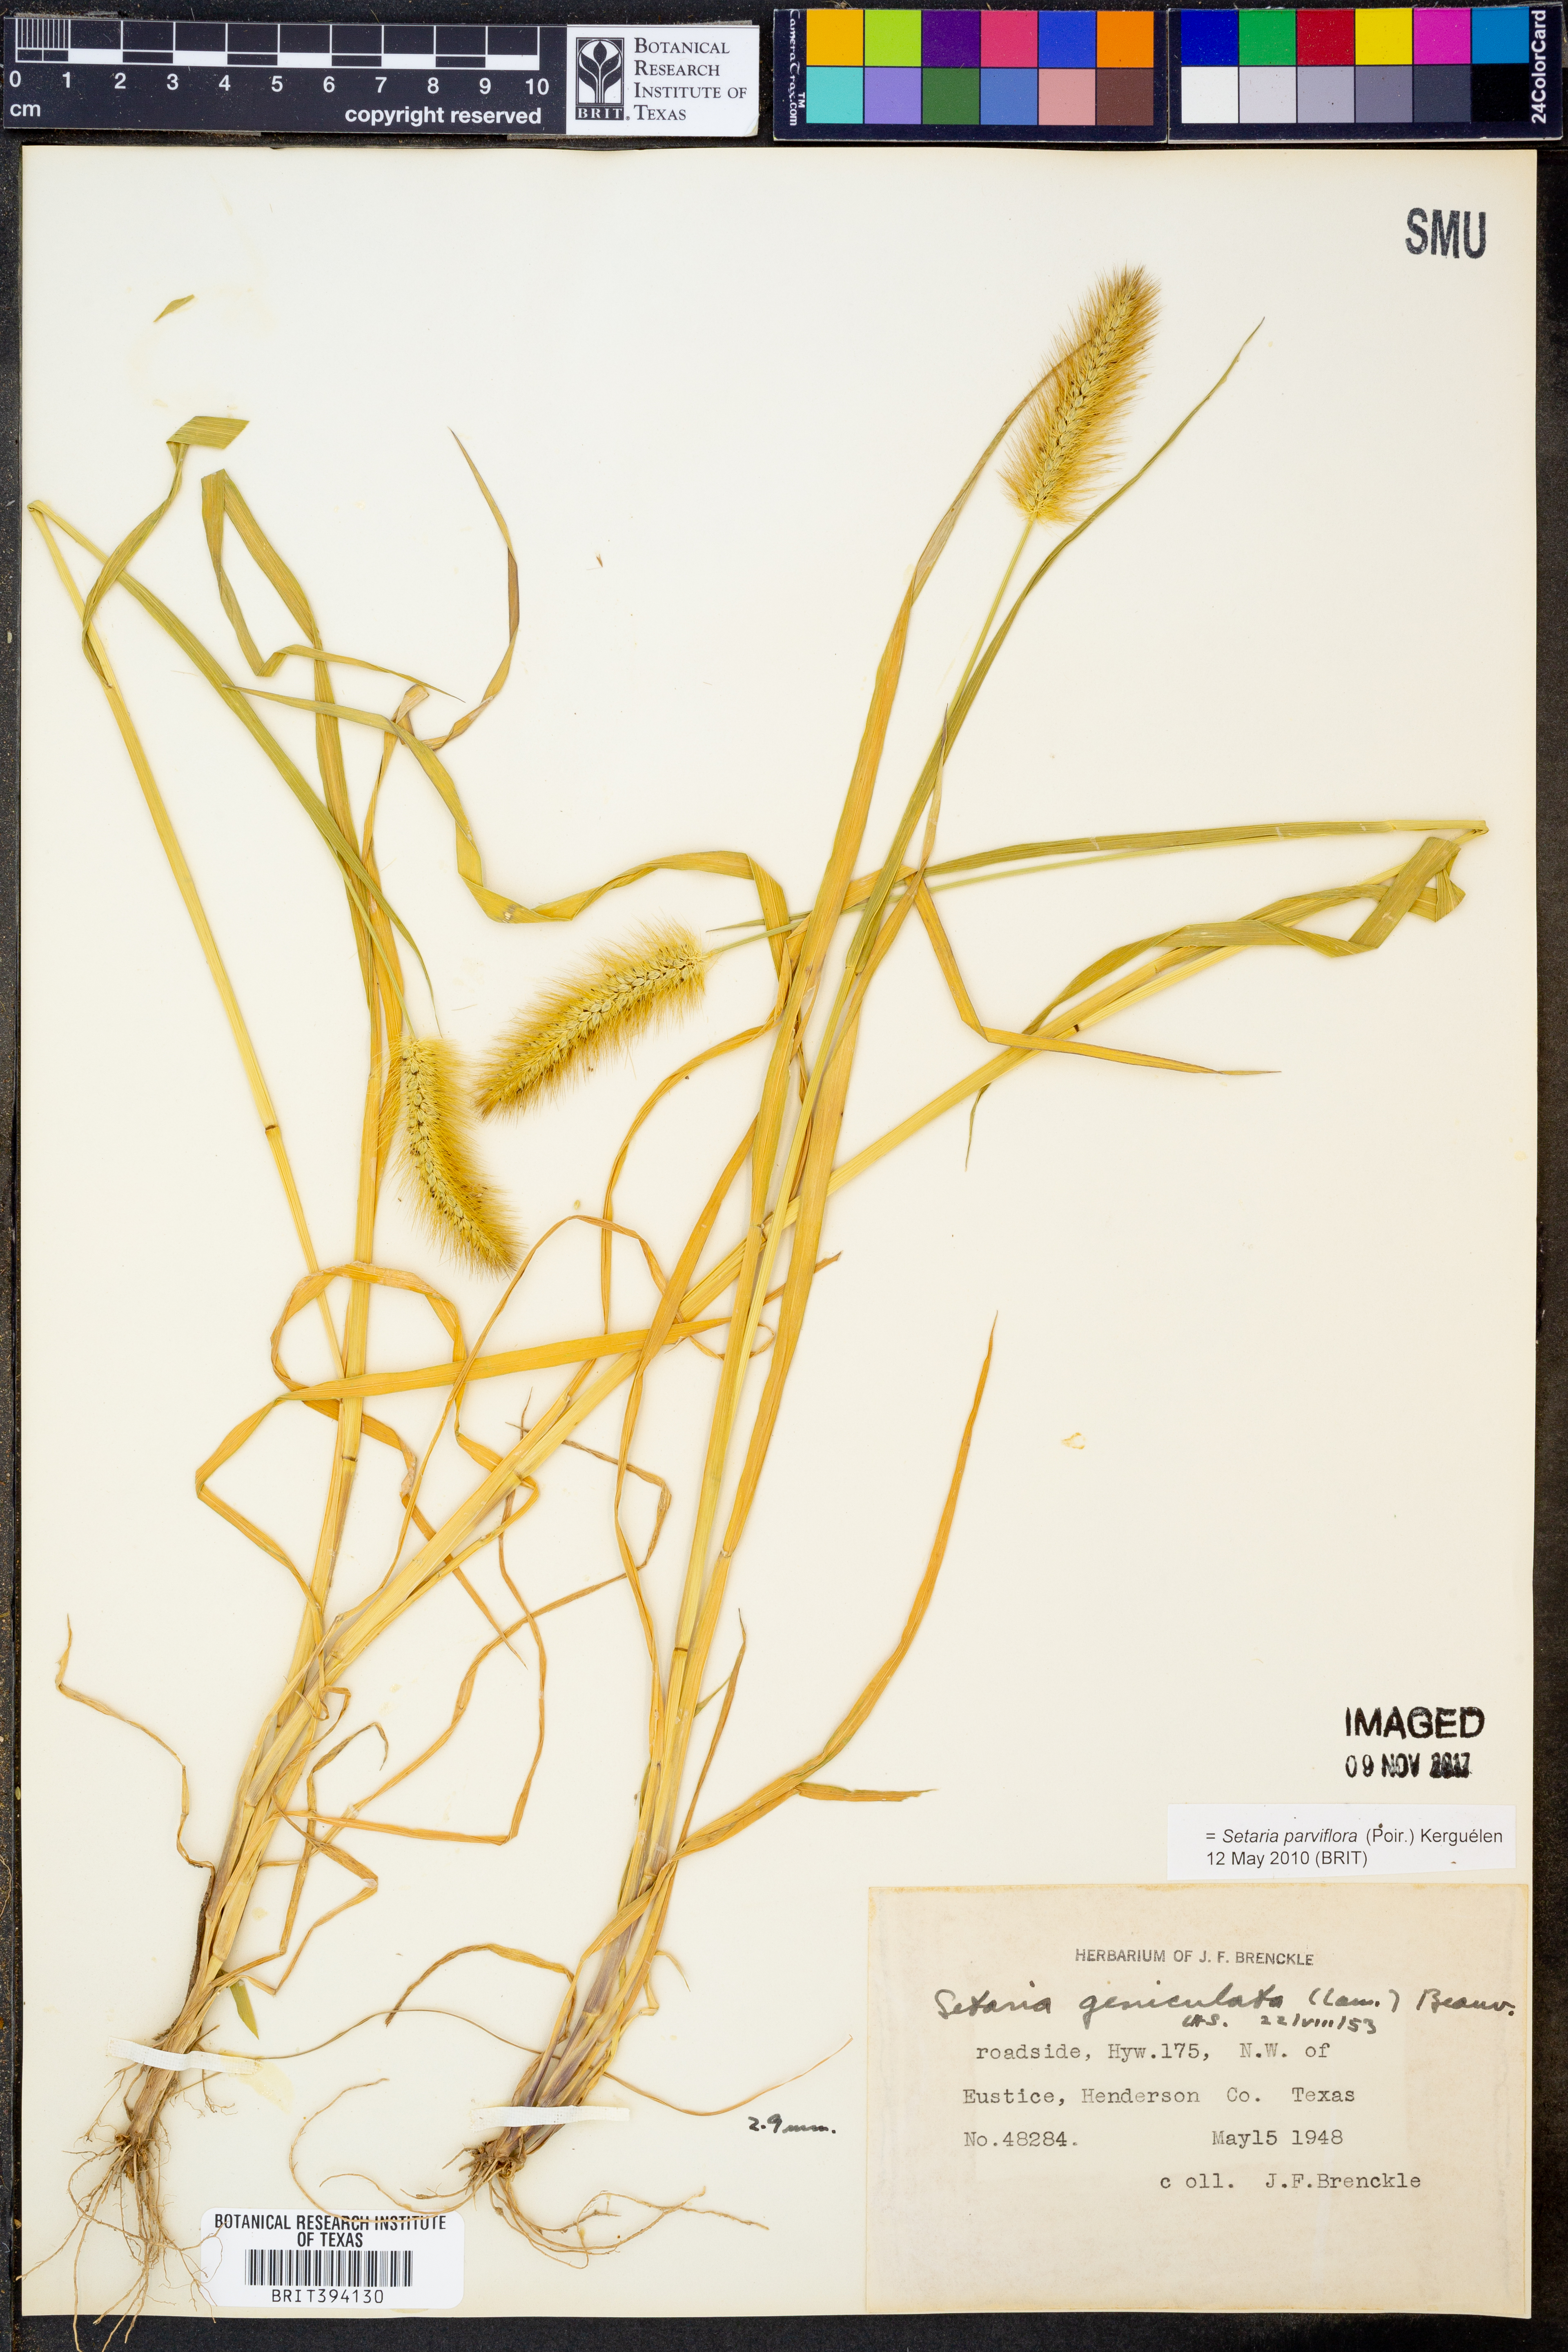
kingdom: Plantae
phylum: Tracheophyta
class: Liliopsida
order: Poales
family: Poaceae
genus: Setaria
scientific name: Setaria parviflora
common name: Knotroot bristle-grass
